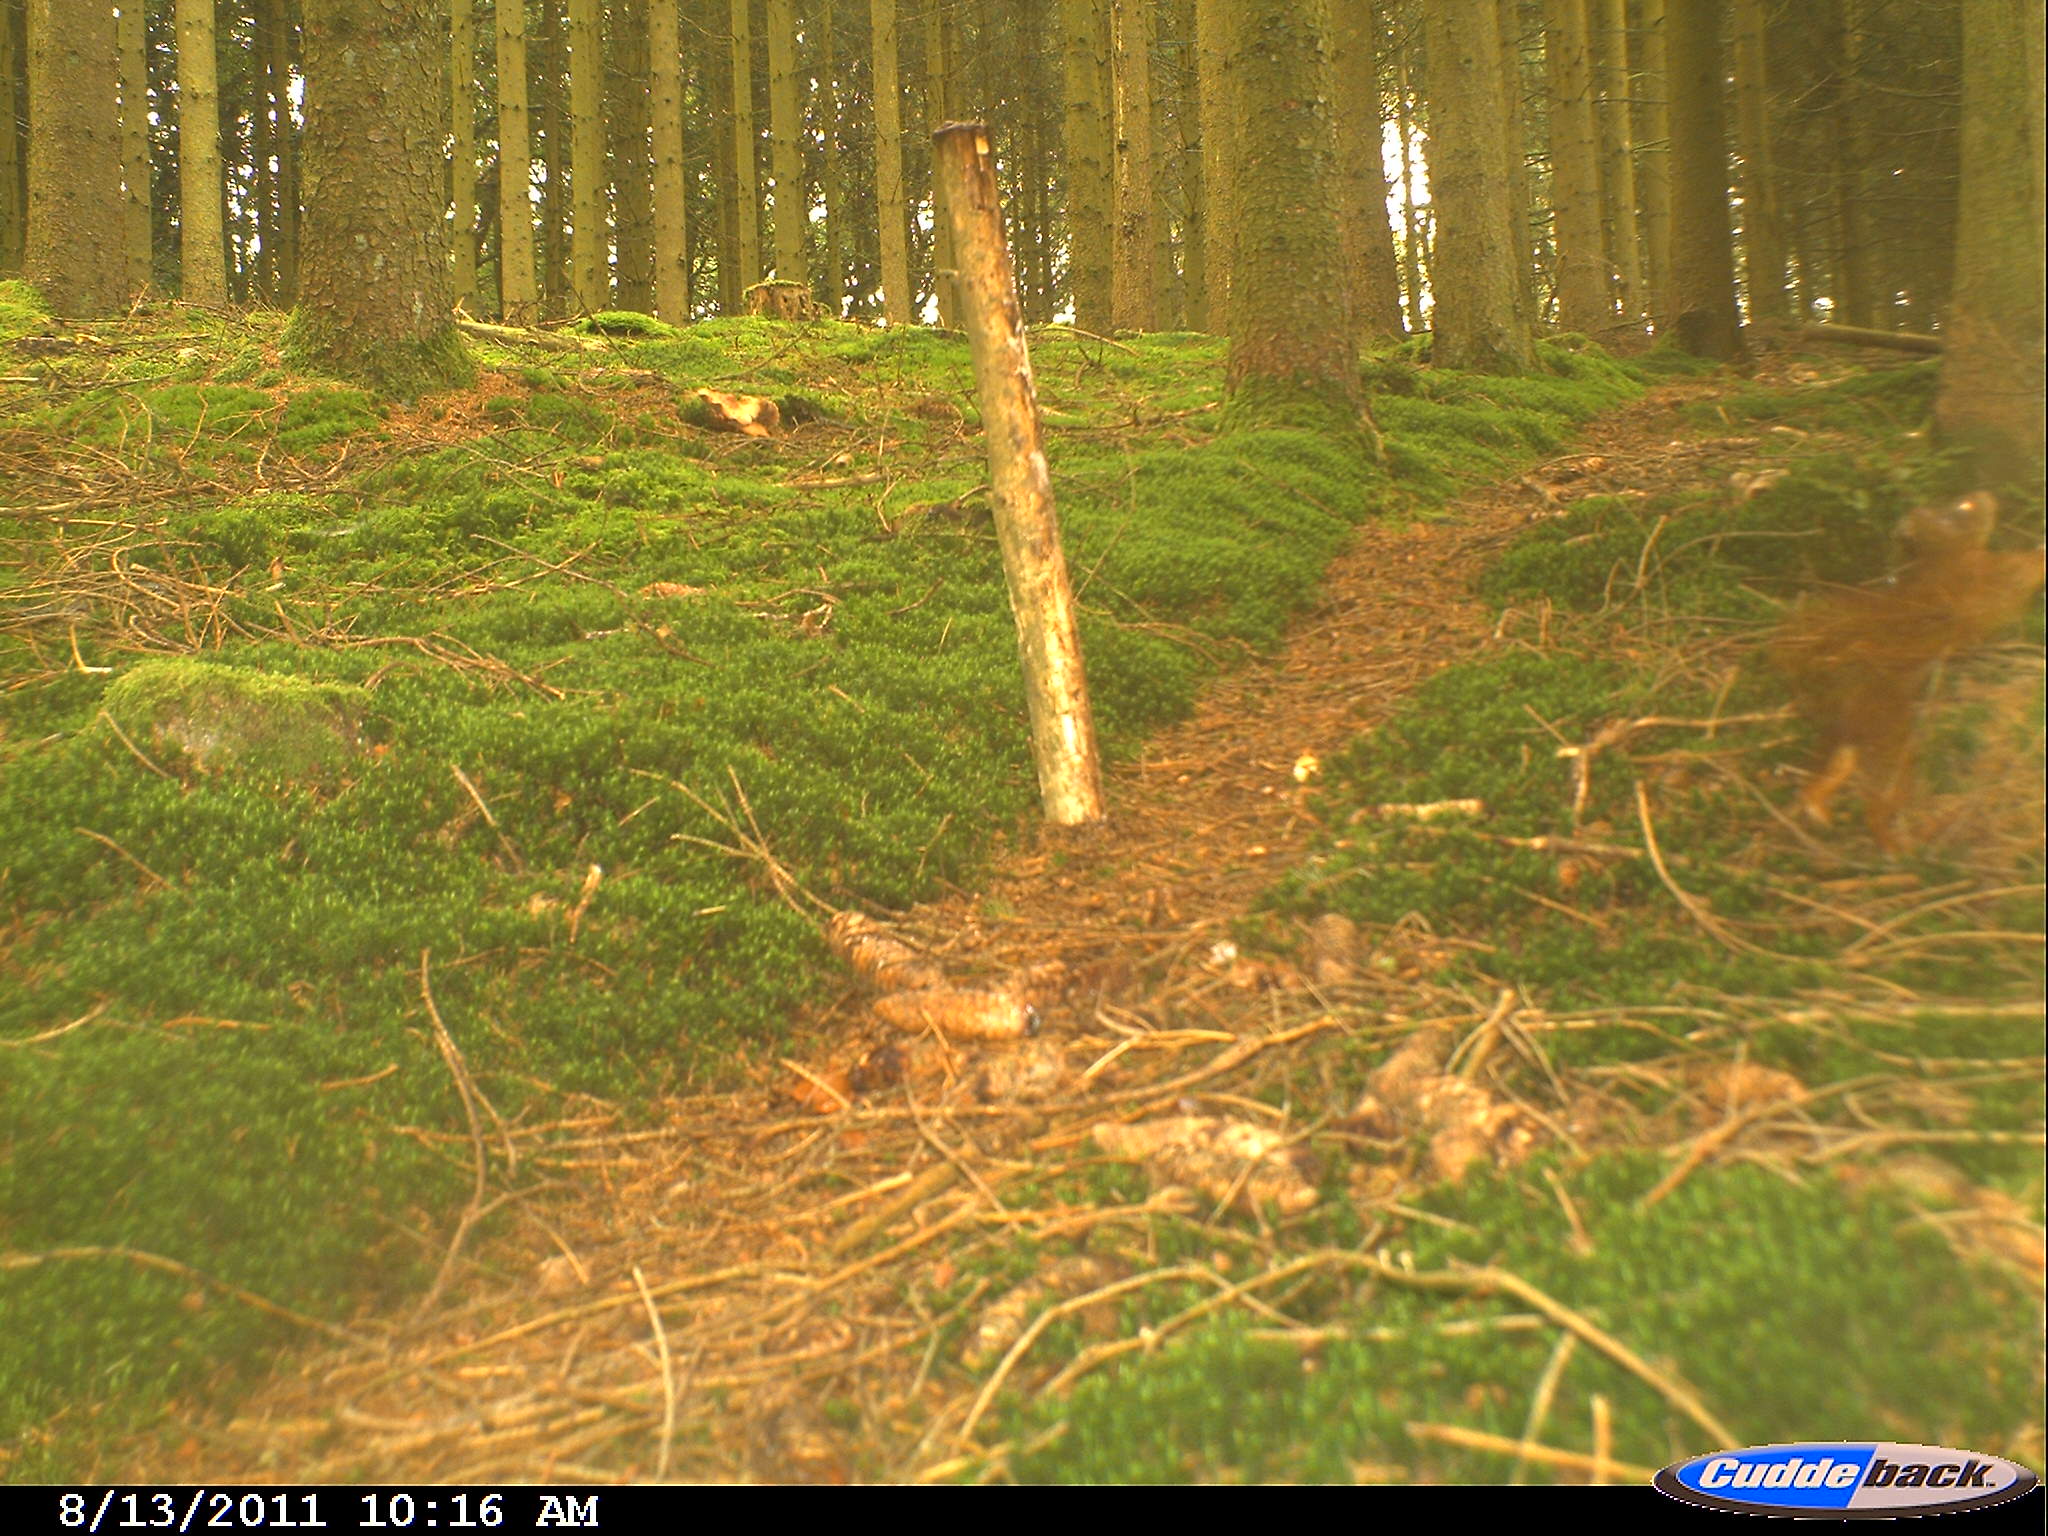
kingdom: Animalia
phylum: Chordata
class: Mammalia
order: Rodentia
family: Sciuridae
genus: Sciurus
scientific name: Sciurus vulgaris
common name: Eurasian red squirrel
